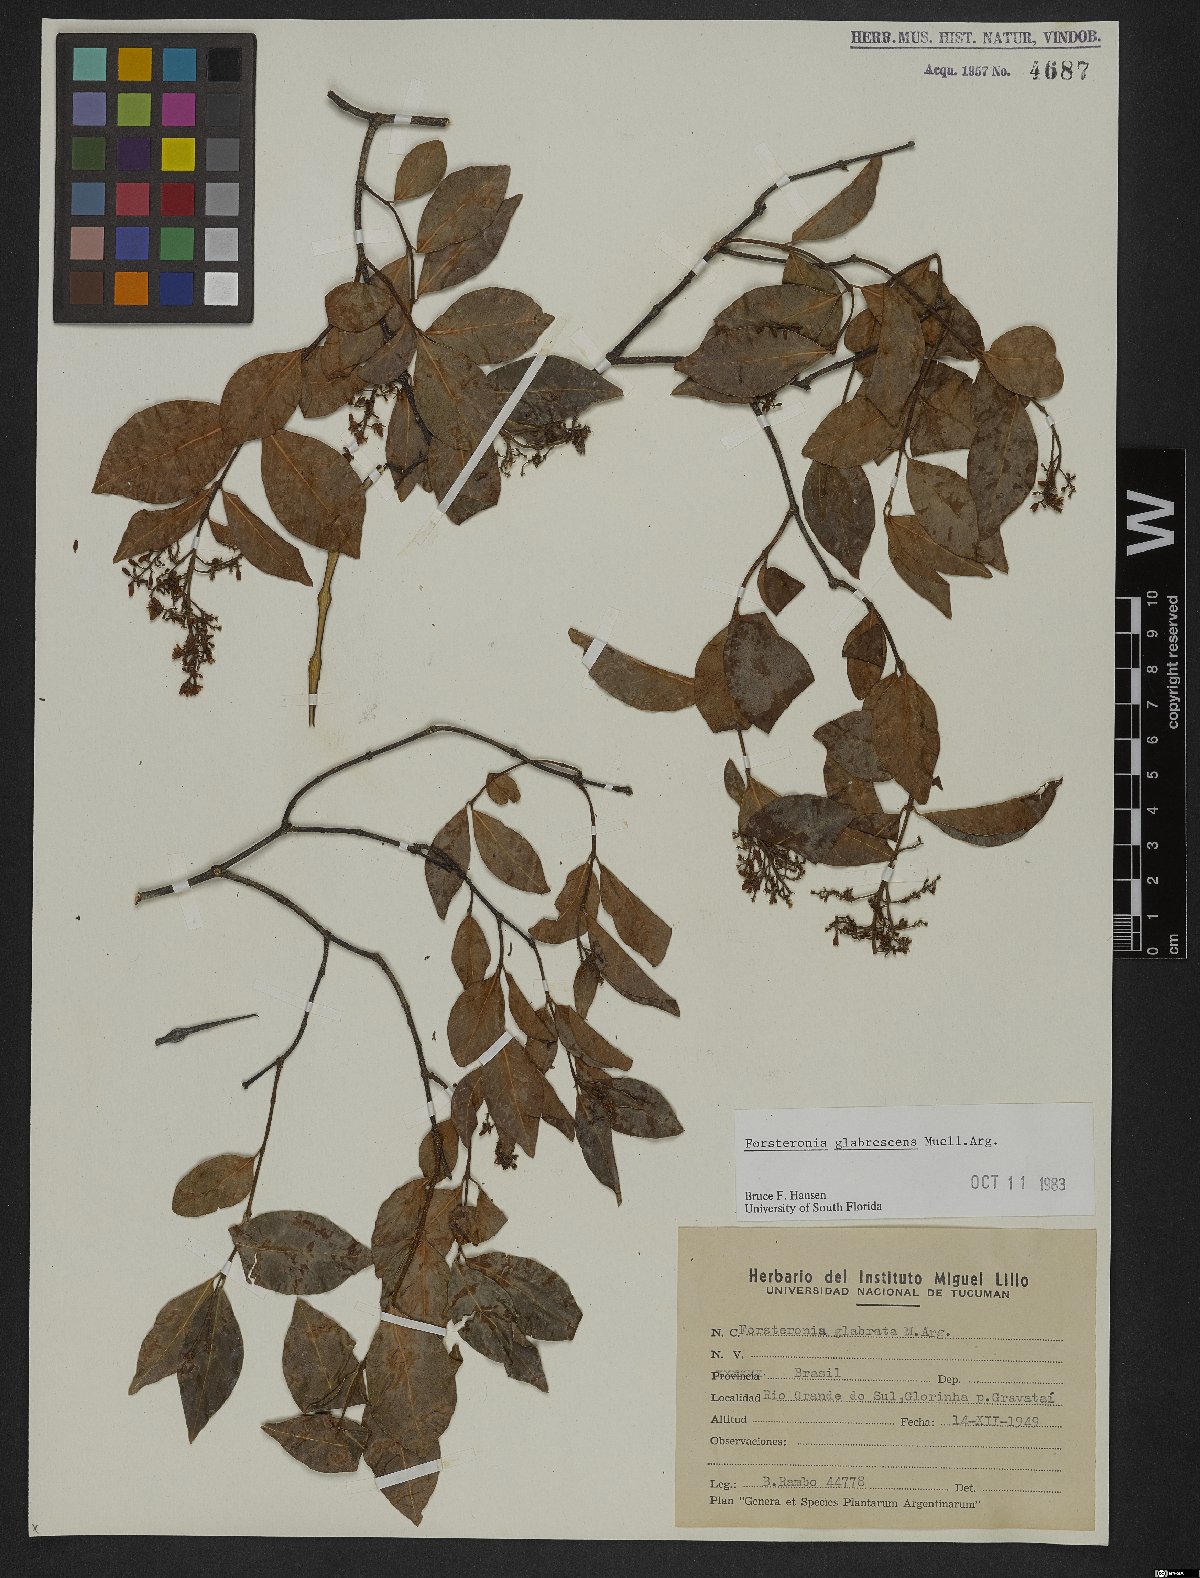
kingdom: Plantae
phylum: Tracheophyta
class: Magnoliopsida
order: Gentianales
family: Apocynaceae
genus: Forsteronia
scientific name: Forsteronia glabrescens
